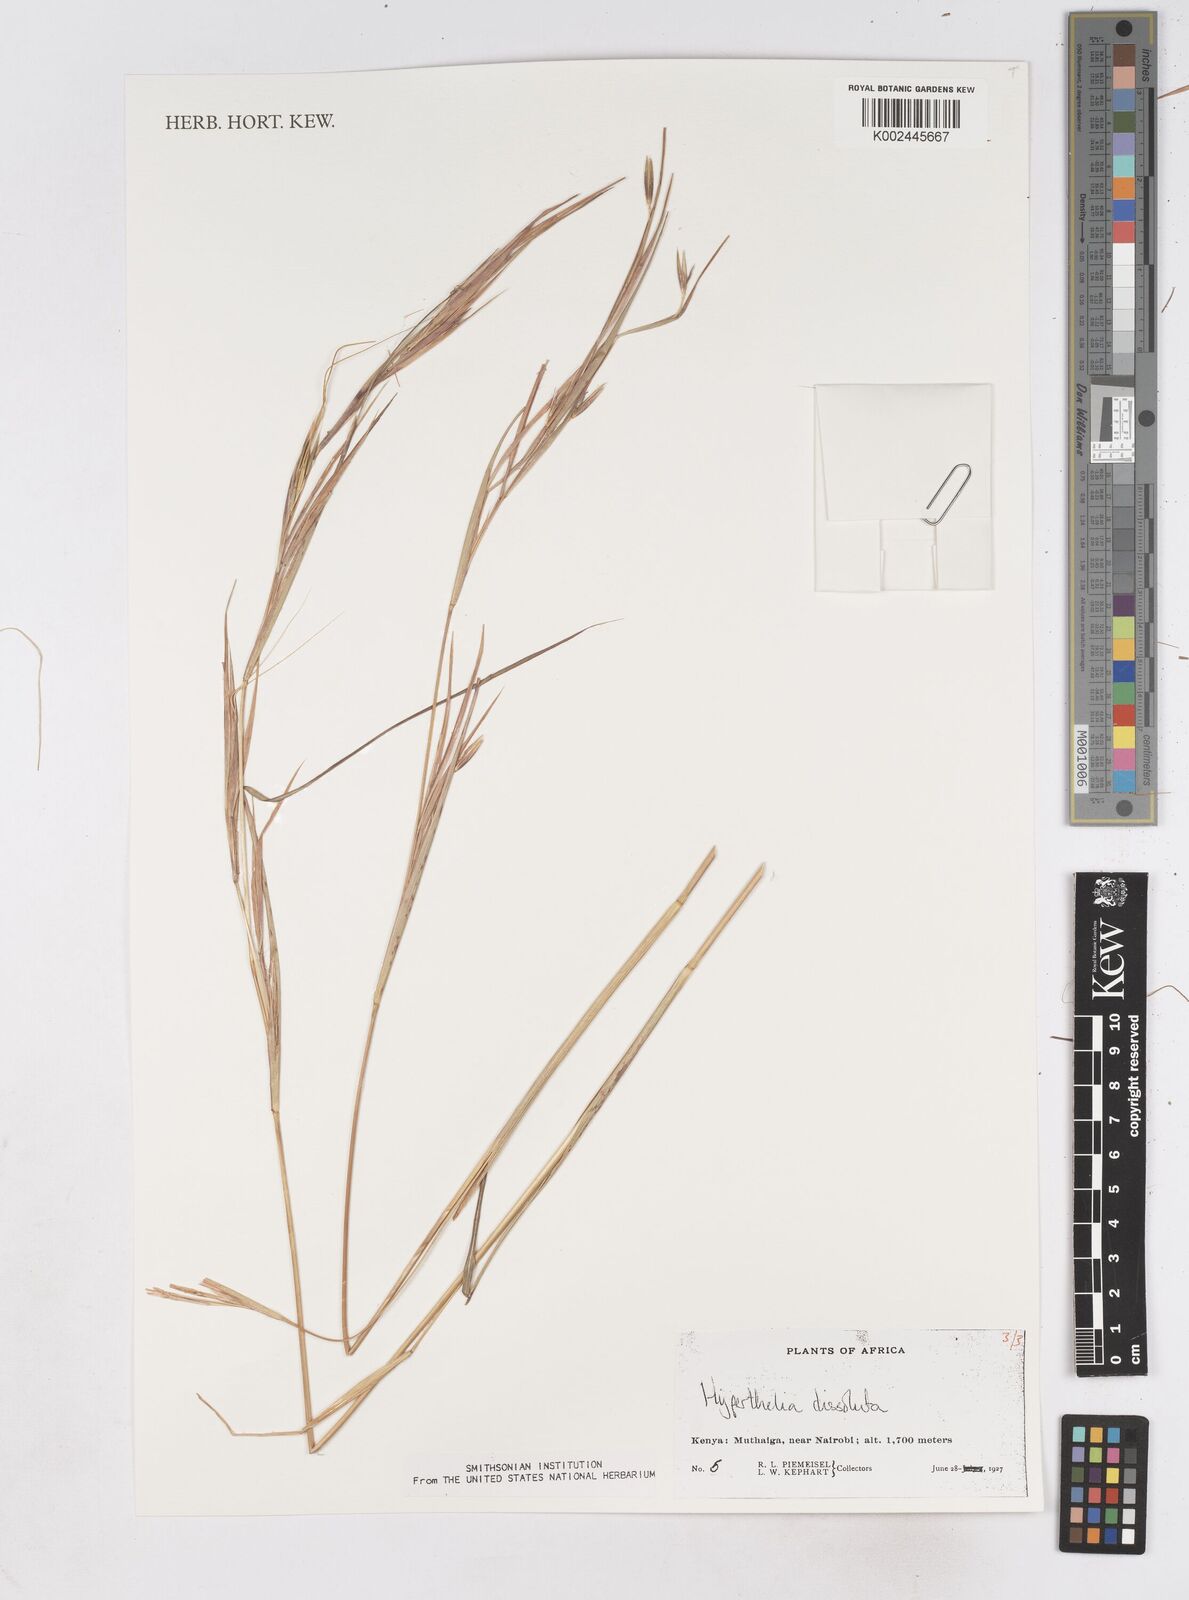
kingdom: Plantae
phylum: Tracheophyta
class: Liliopsida
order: Poales
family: Poaceae
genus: Hyperthelia
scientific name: Hyperthelia dissoluta
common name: Yellow thatching grass
